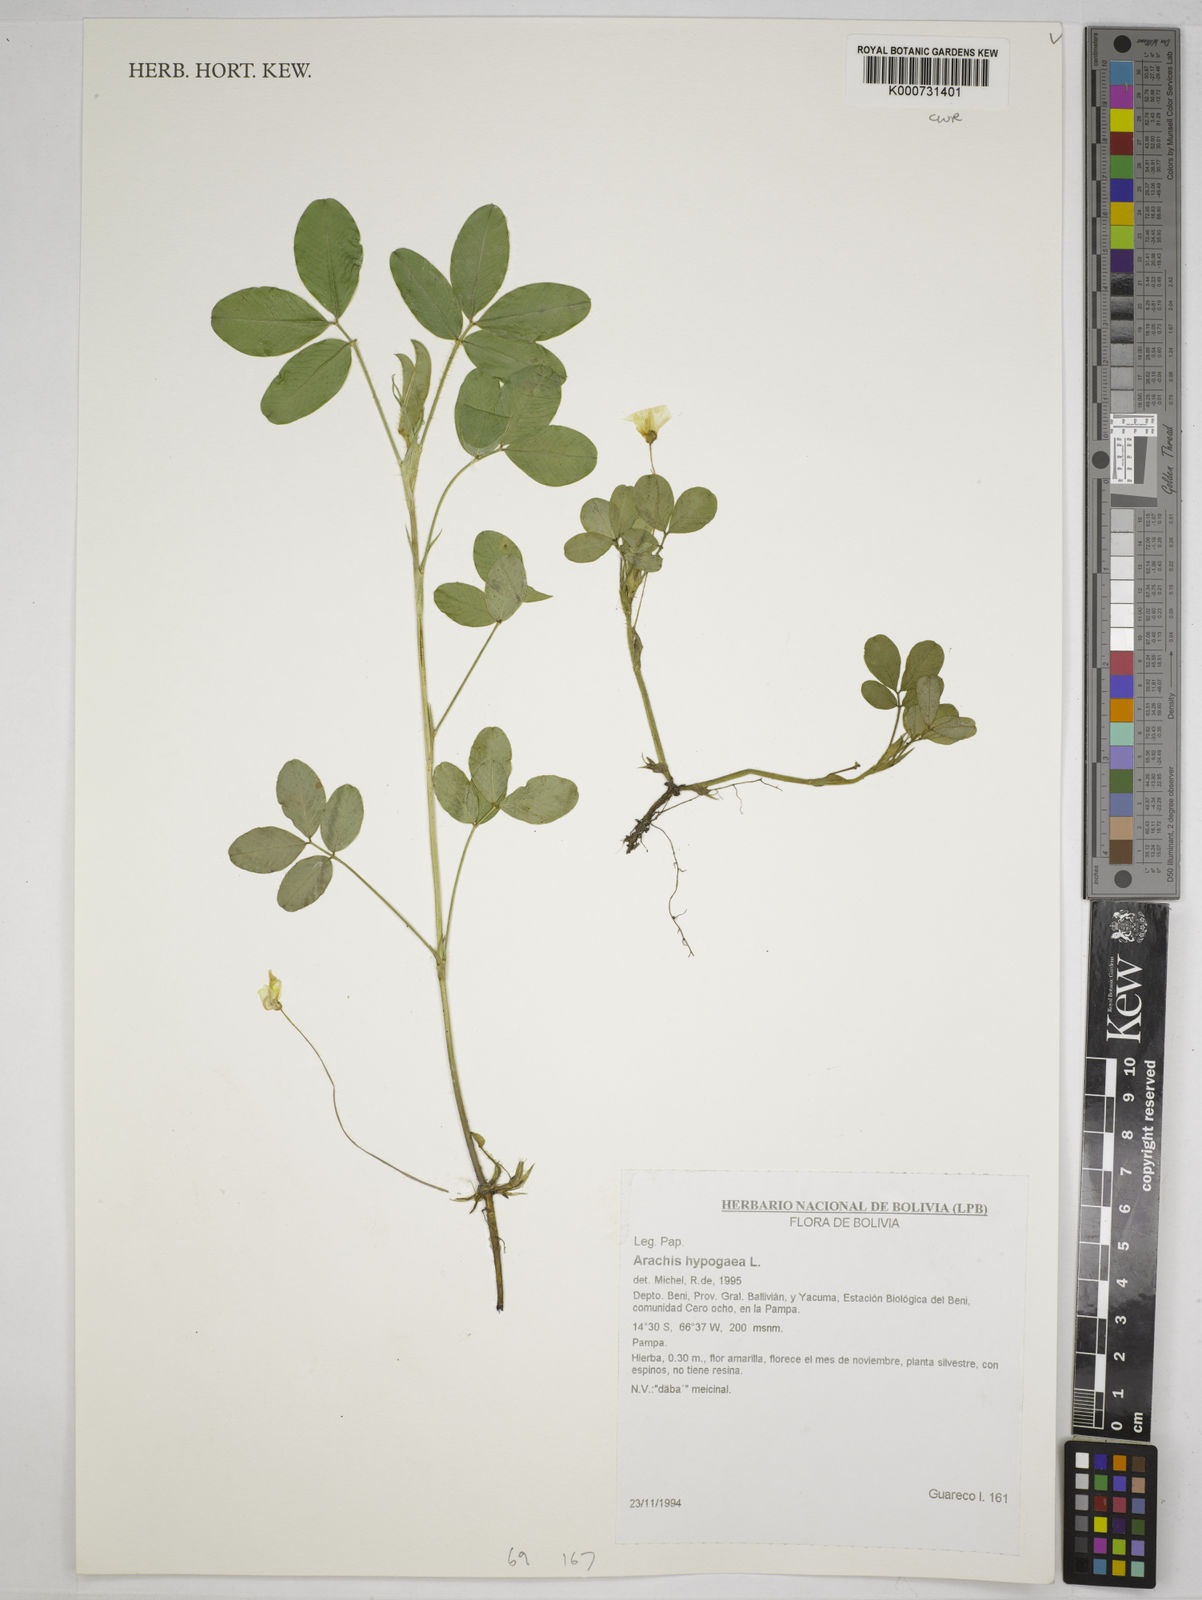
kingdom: Plantae
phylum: Tracheophyta
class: Magnoliopsida
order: Fabales
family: Fabaceae
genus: Arachis
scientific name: Arachis hypogaea
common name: Peanut
